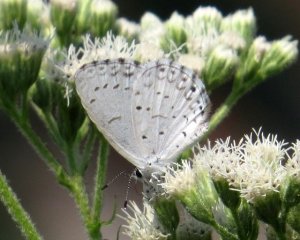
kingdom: Animalia
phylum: Arthropoda
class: Insecta
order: Lepidoptera
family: Lycaenidae
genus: Cyaniris
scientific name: Cyaniris neglecta
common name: Summer Azure
